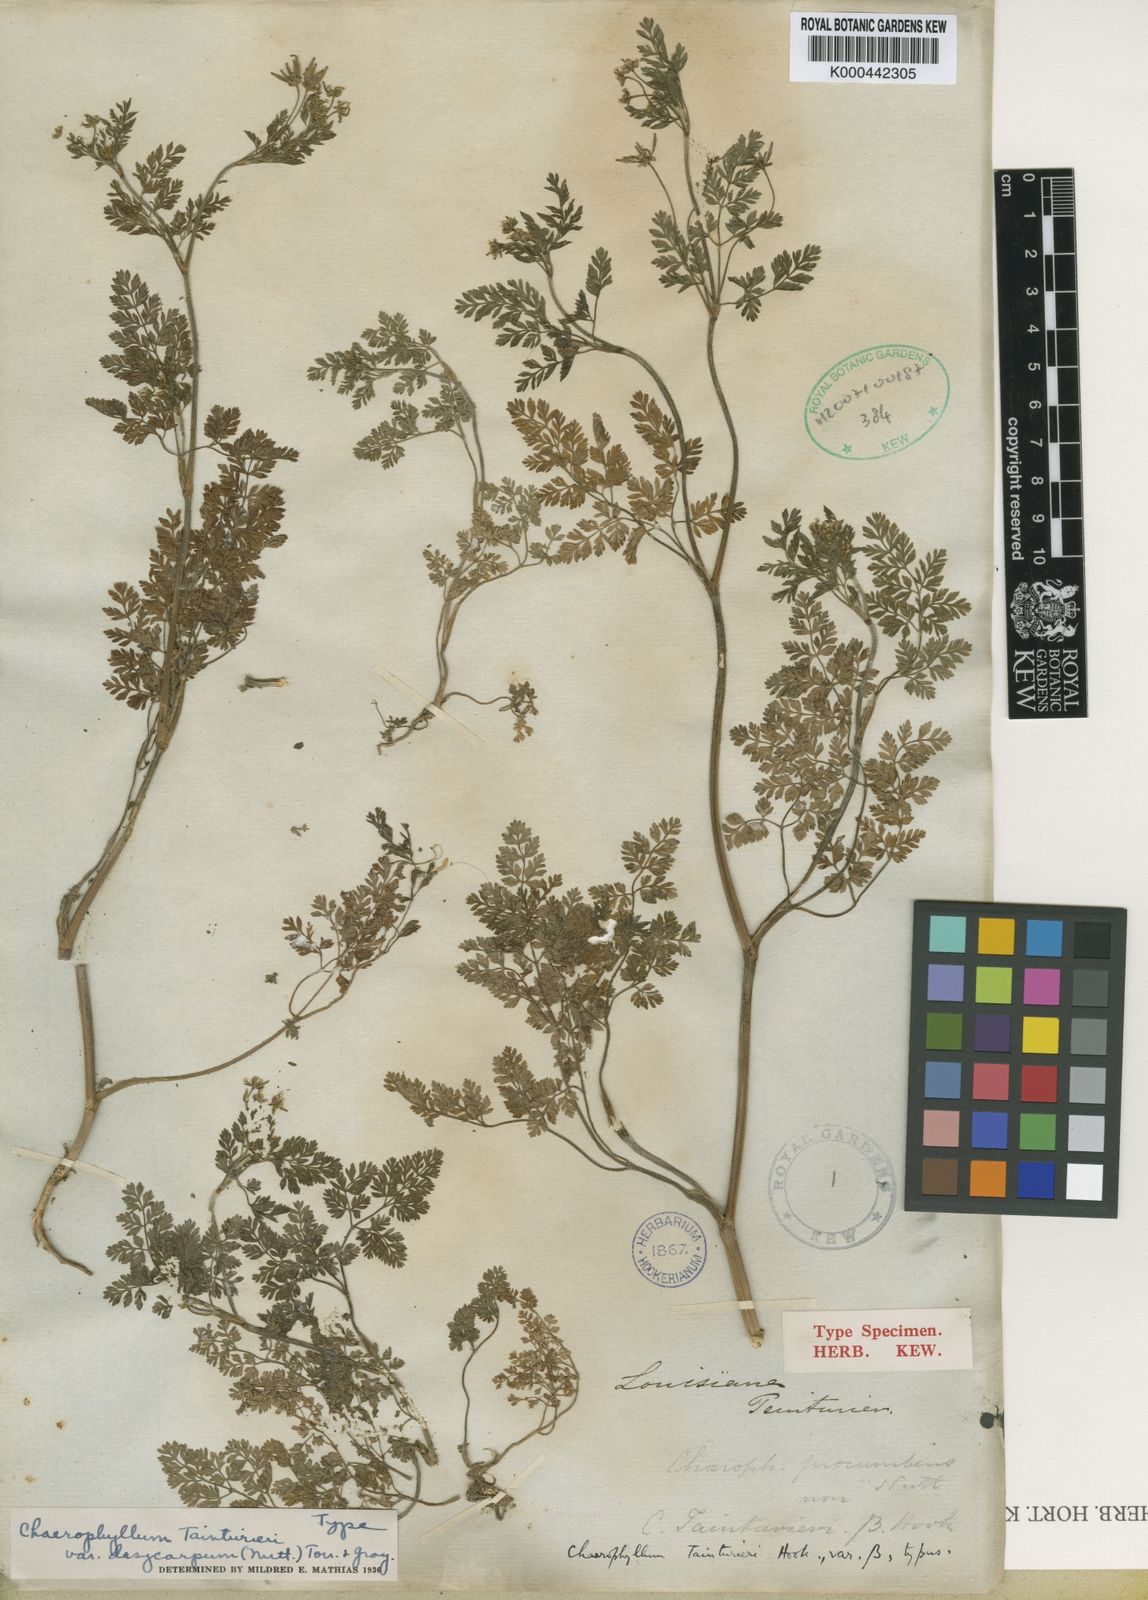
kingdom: Plantae
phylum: Tracheophyta
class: Magnoliopsida
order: Apiales
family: Apiaceae
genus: Chaerophyllum
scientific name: Chaerophyllum tainturieri
